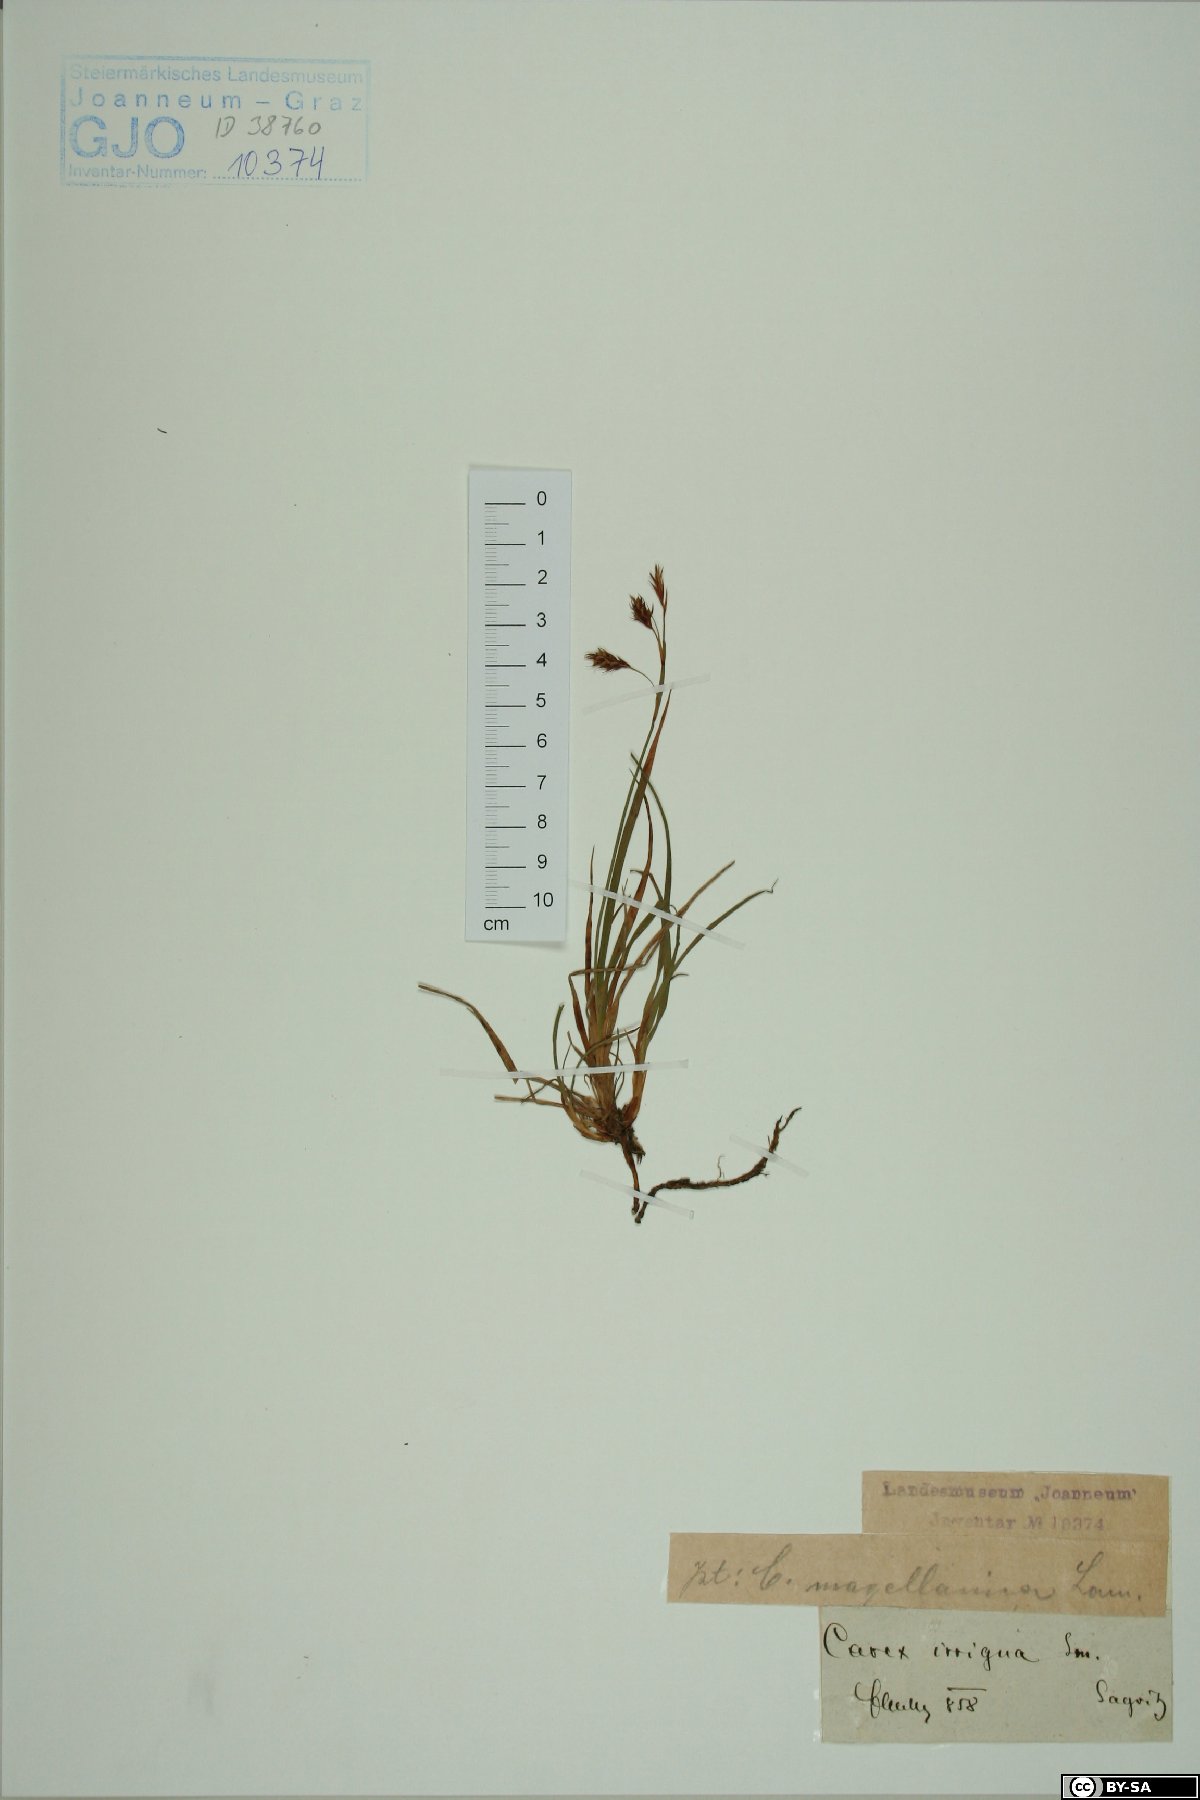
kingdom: Plantae
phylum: Tracheophyta
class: Liliopsida
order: Poales
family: Cyperaceae
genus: Carex
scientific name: Carex magellanica
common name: Bog sedge
